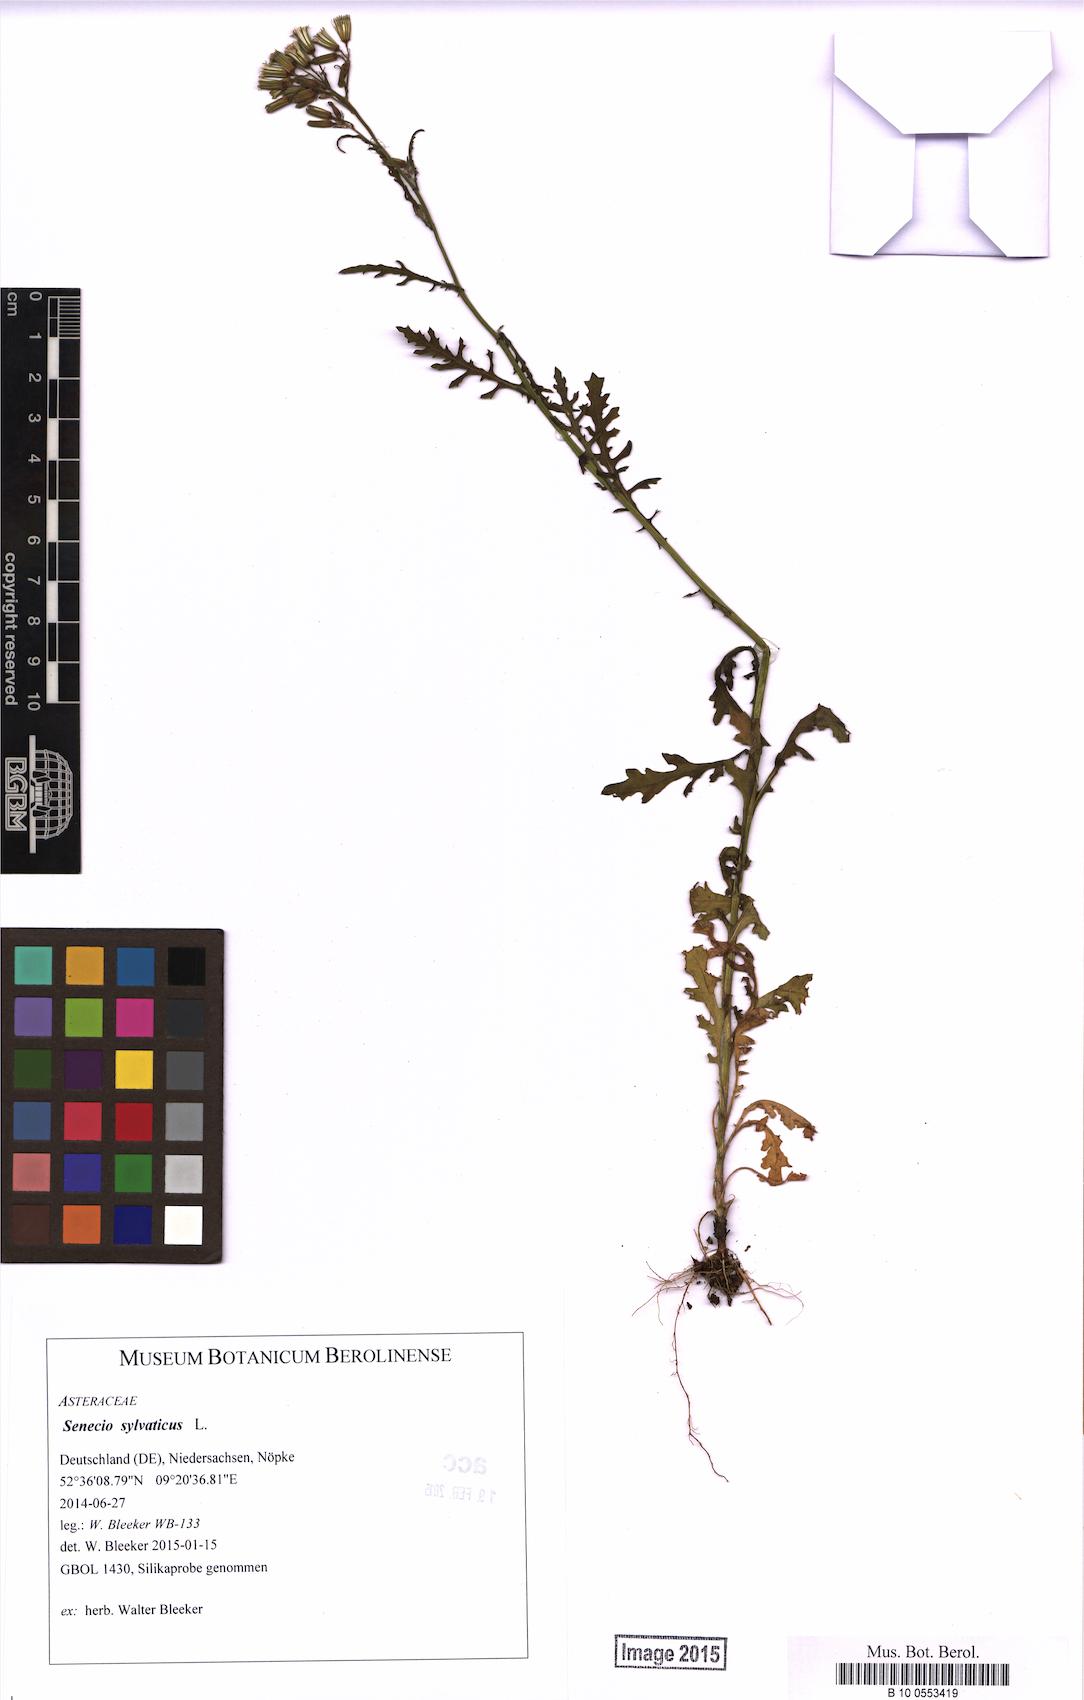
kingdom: Plantae
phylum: Tracheophyta
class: Magnoliopsida
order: Asterales
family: Asteraceae
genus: Senecio
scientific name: Senecio sylvaticus
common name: Woodland ragwort
